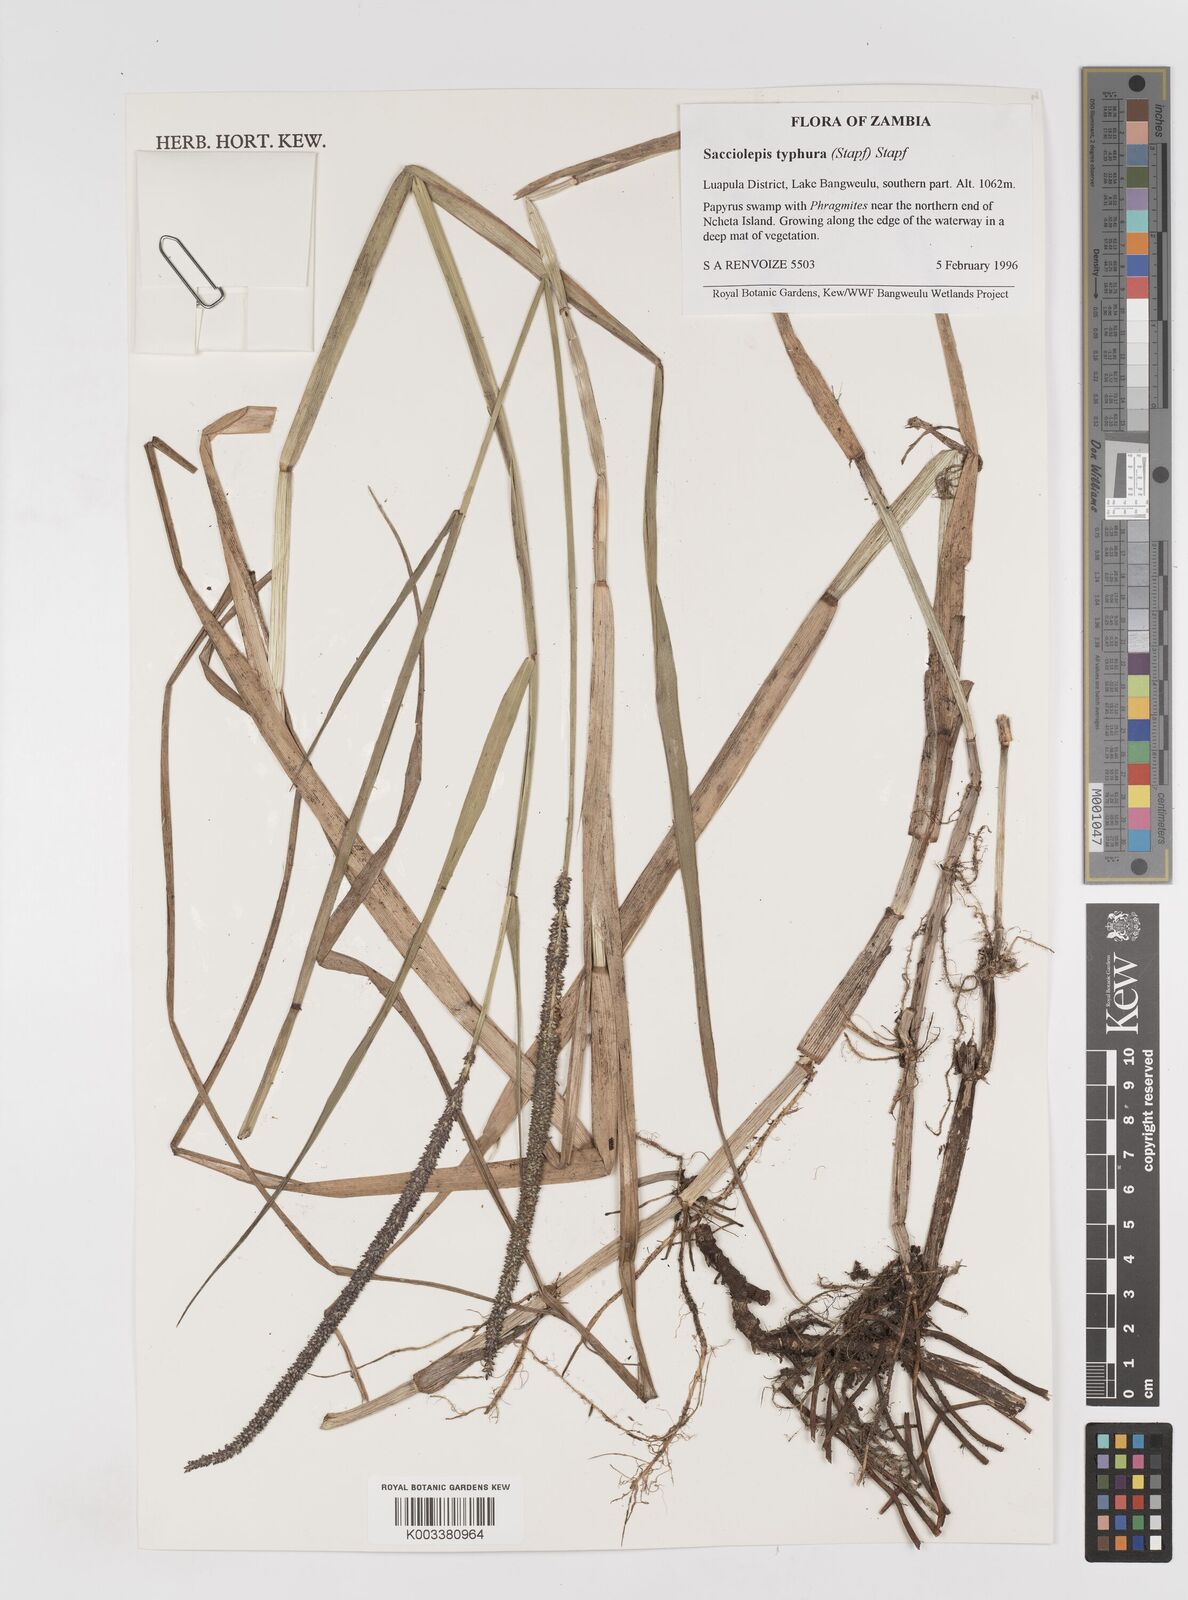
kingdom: Plantae
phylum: Tracheophyta
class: Liliopsida
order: Poales
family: Poaceae
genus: Sacciolepis
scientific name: Sacciolepis typhura
